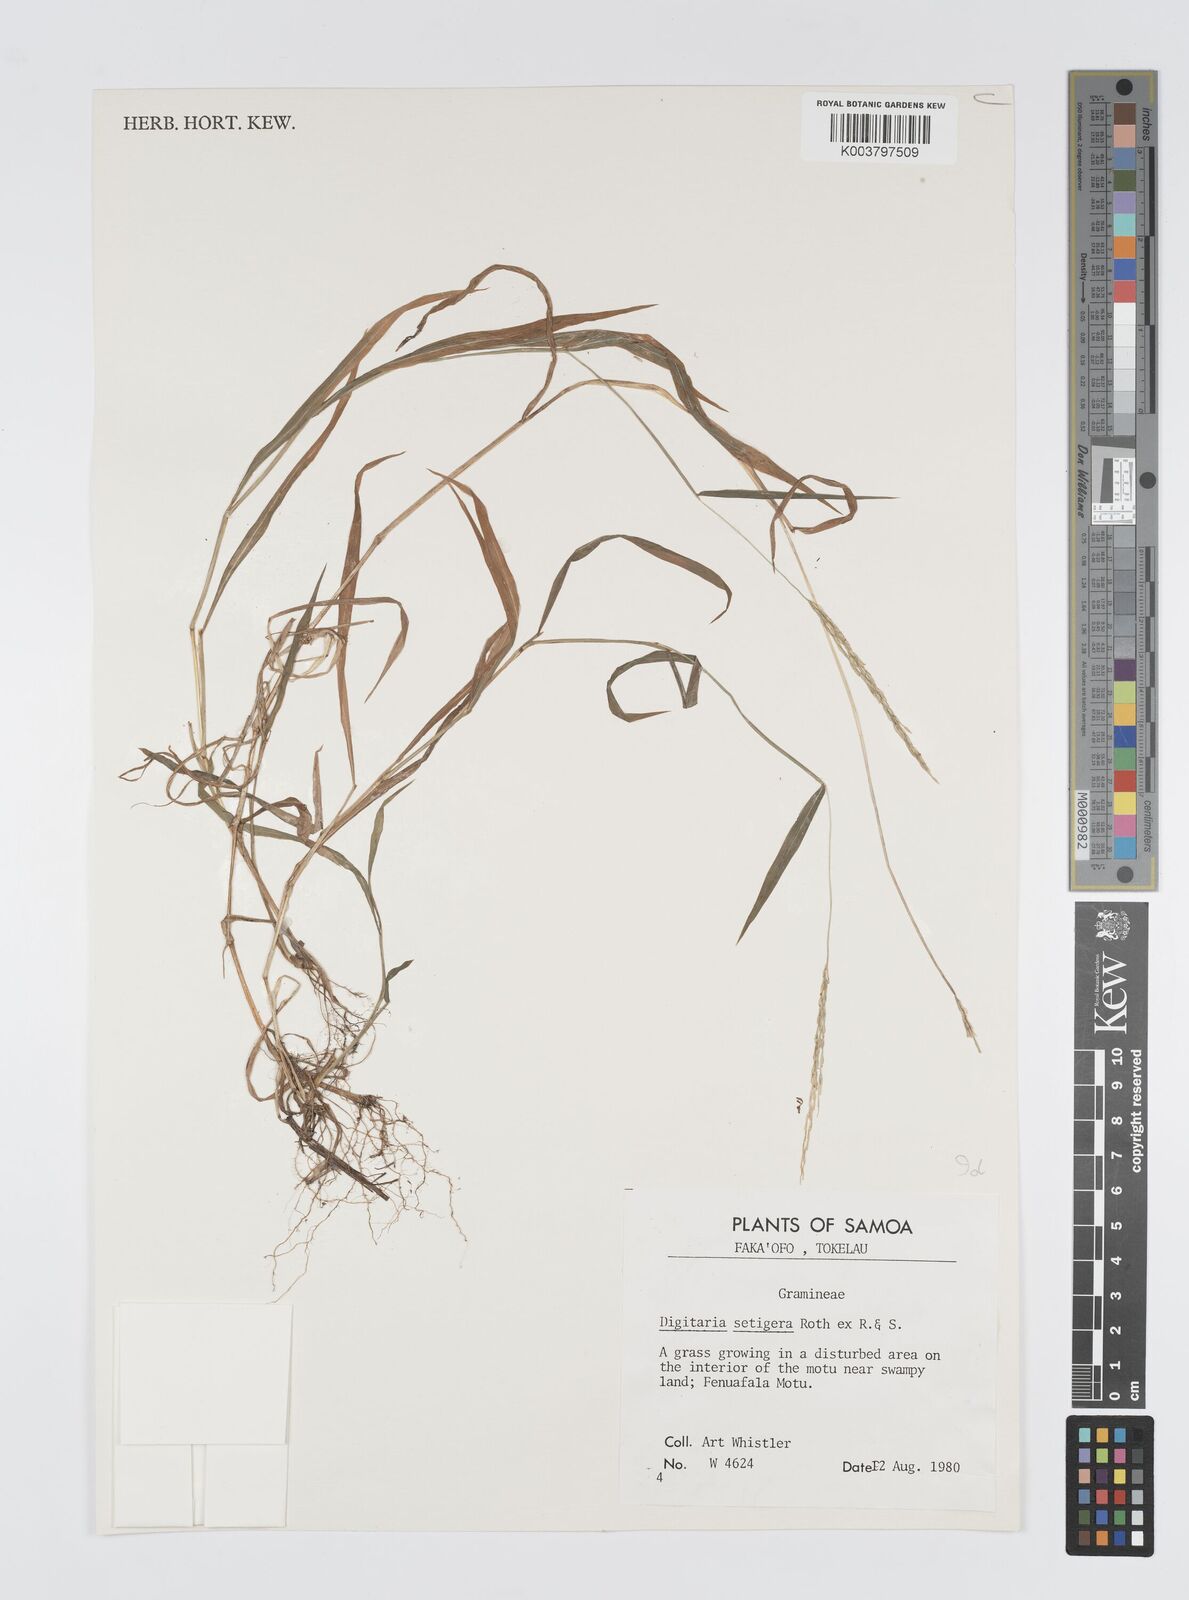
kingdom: Plantae
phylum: Tracheophyta
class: Liliopsida
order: Poales
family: Poaceae
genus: Digitaria
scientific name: Digitaria setigera
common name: East indian crabgrass
